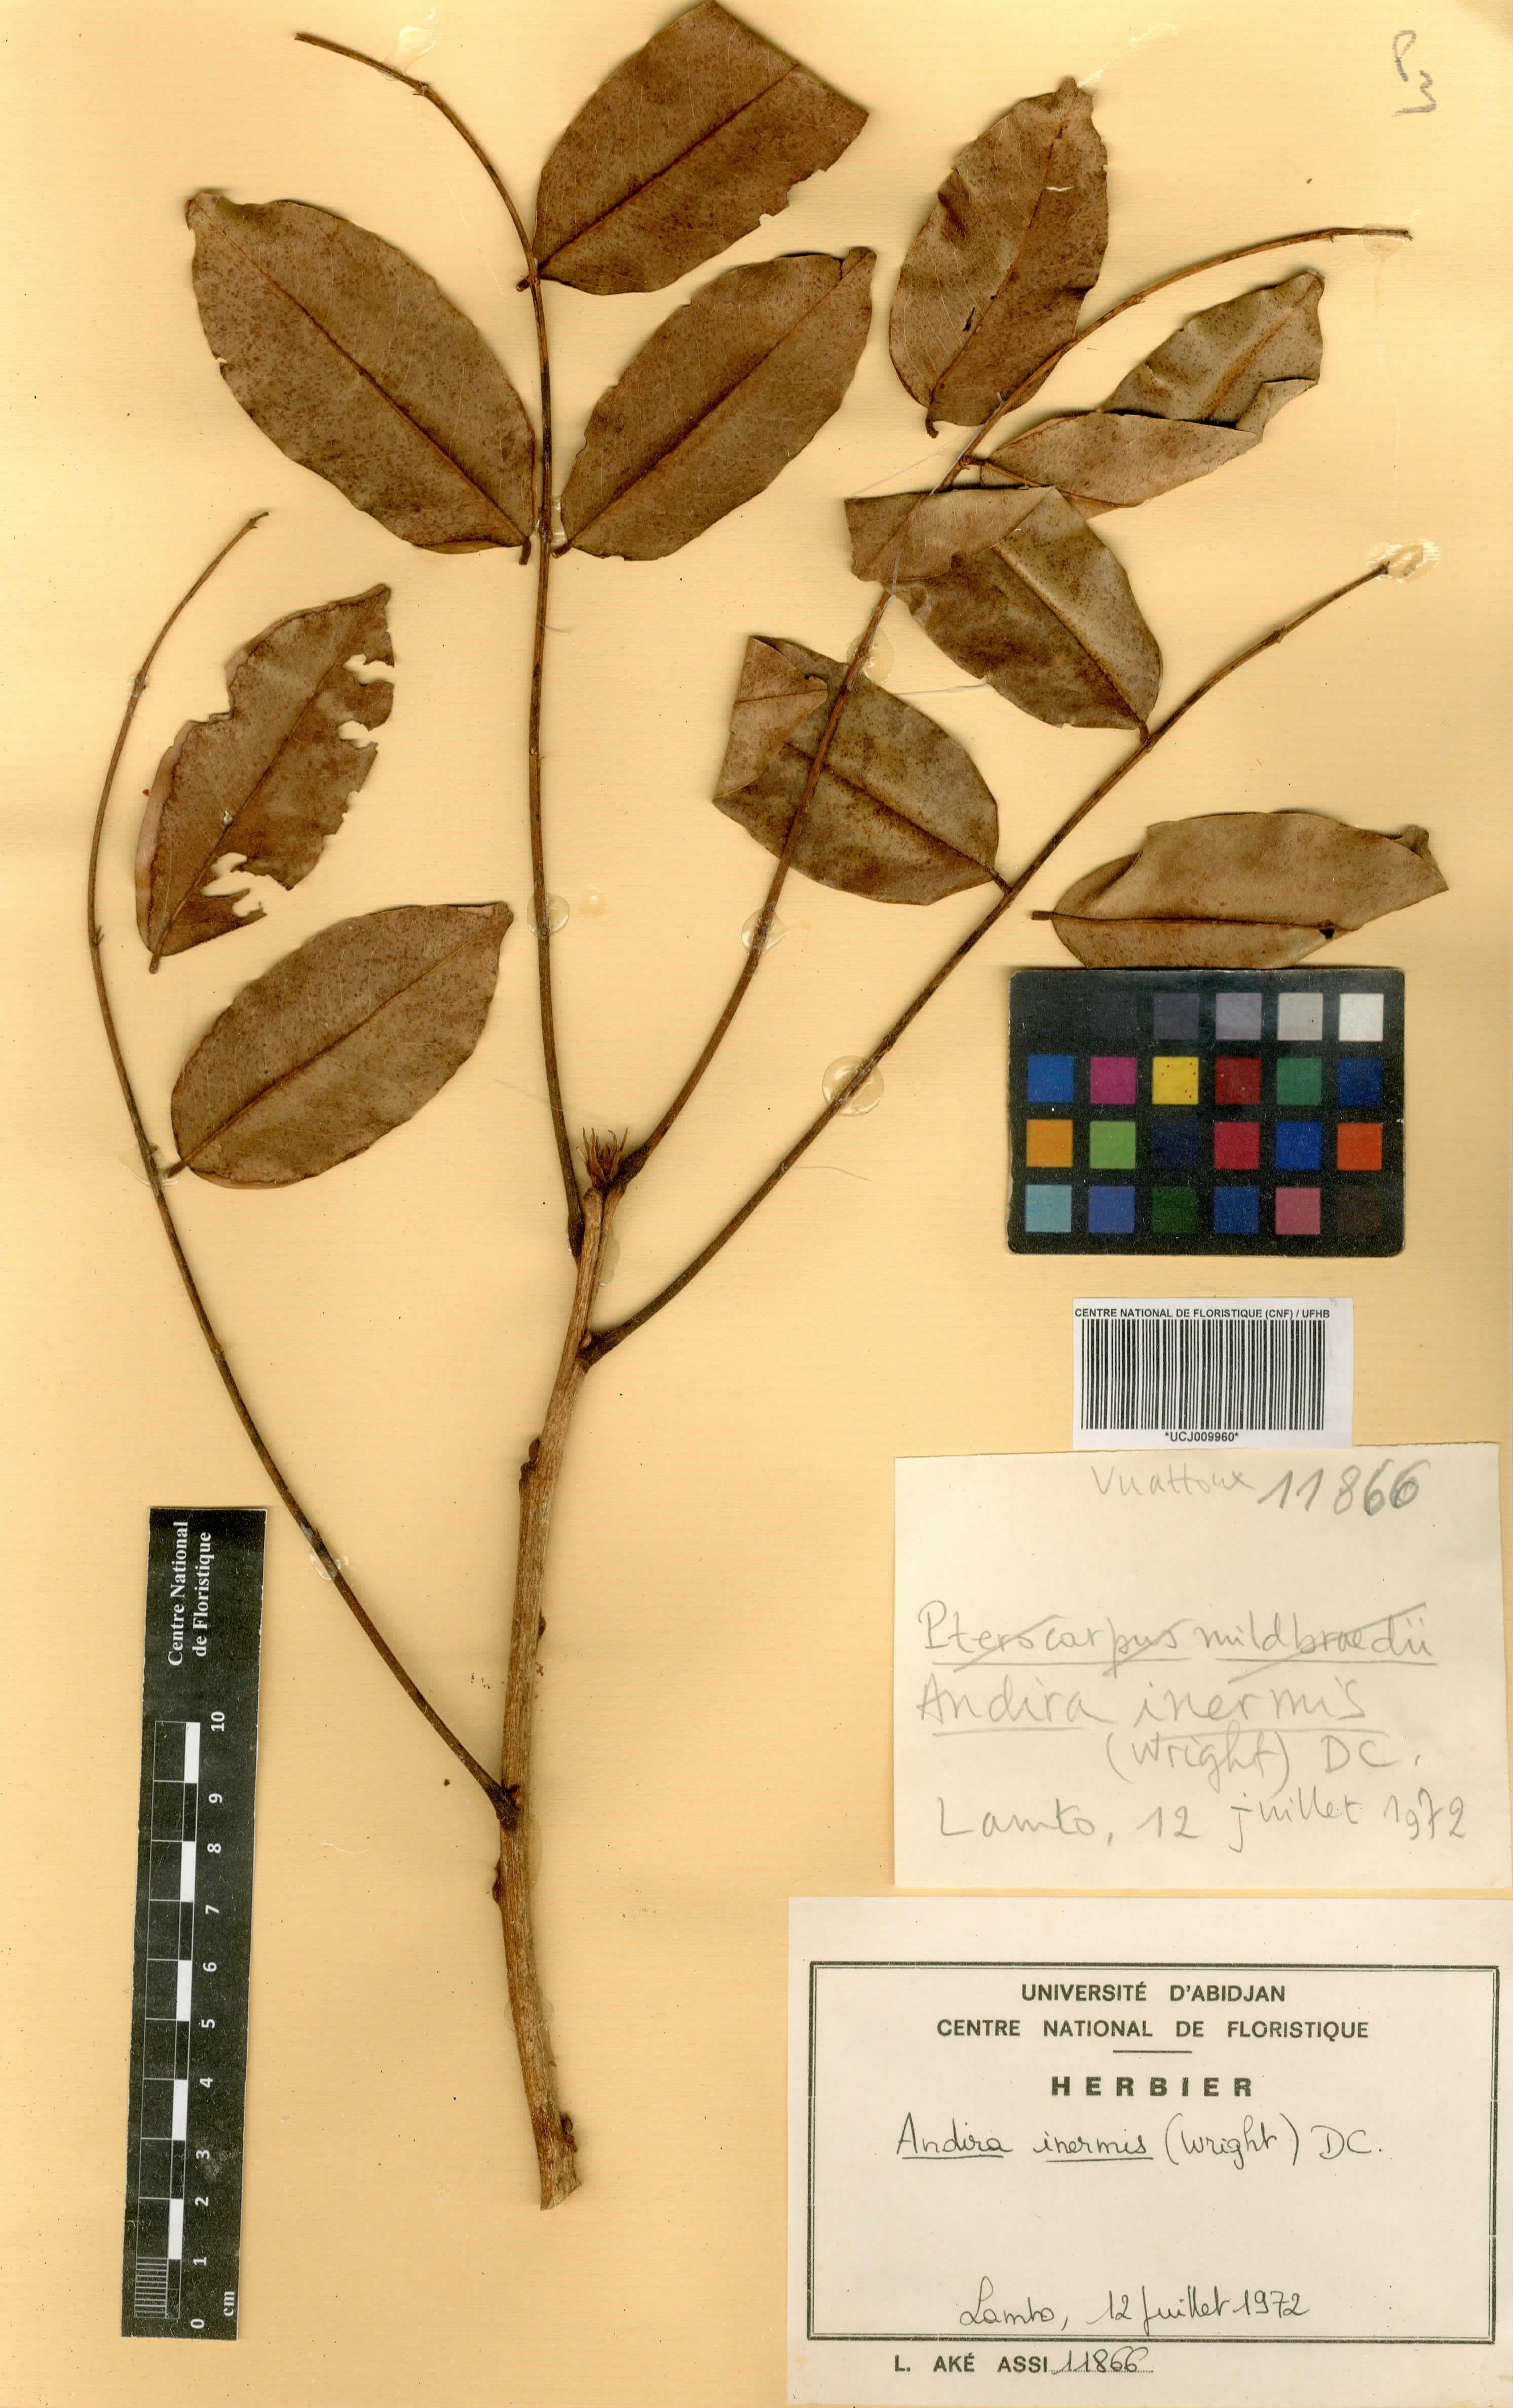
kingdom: Plantae
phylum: Tracheophyta
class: Magnoliopsida
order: Fabales
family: Fabaceae
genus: Andira
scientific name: Andira inermis
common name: Angelin
